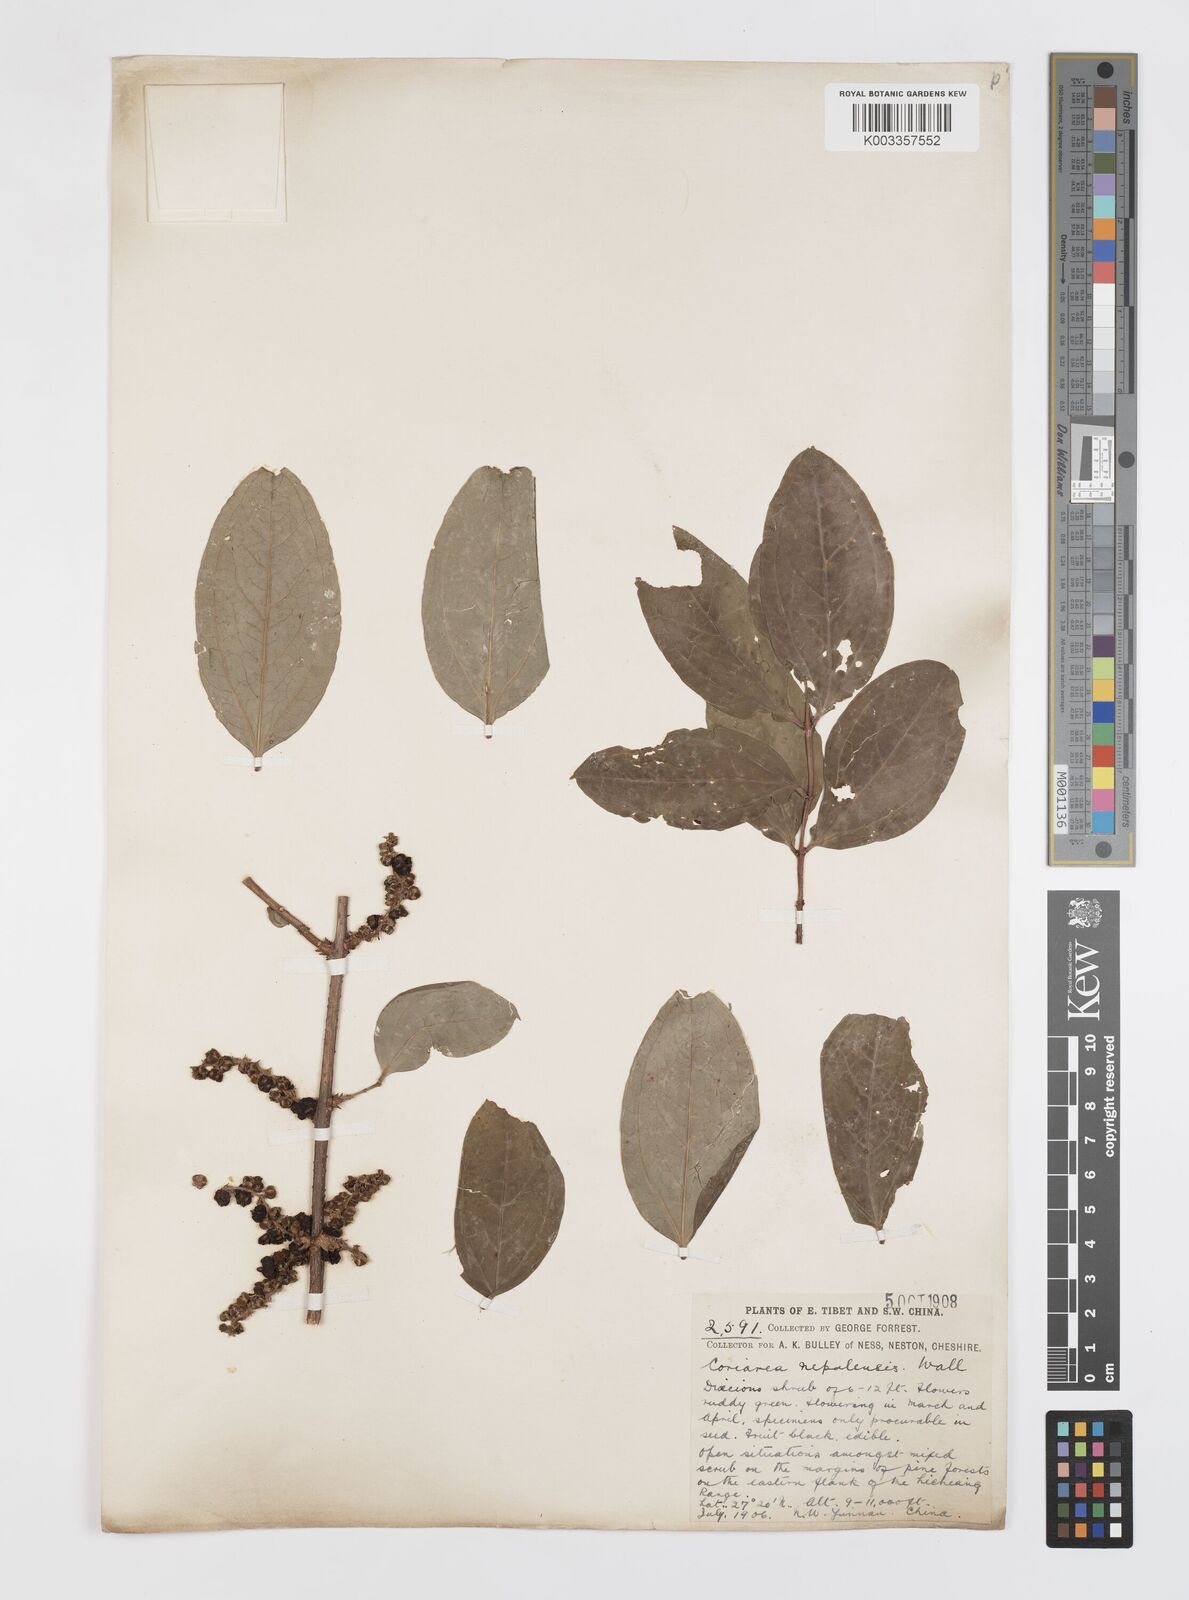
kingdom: Plantae
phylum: Tracheophyta
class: Magnoliopsida
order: Cucurbitales
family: Coriariaceae
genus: Coriaria
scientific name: Coriaria napalensis
